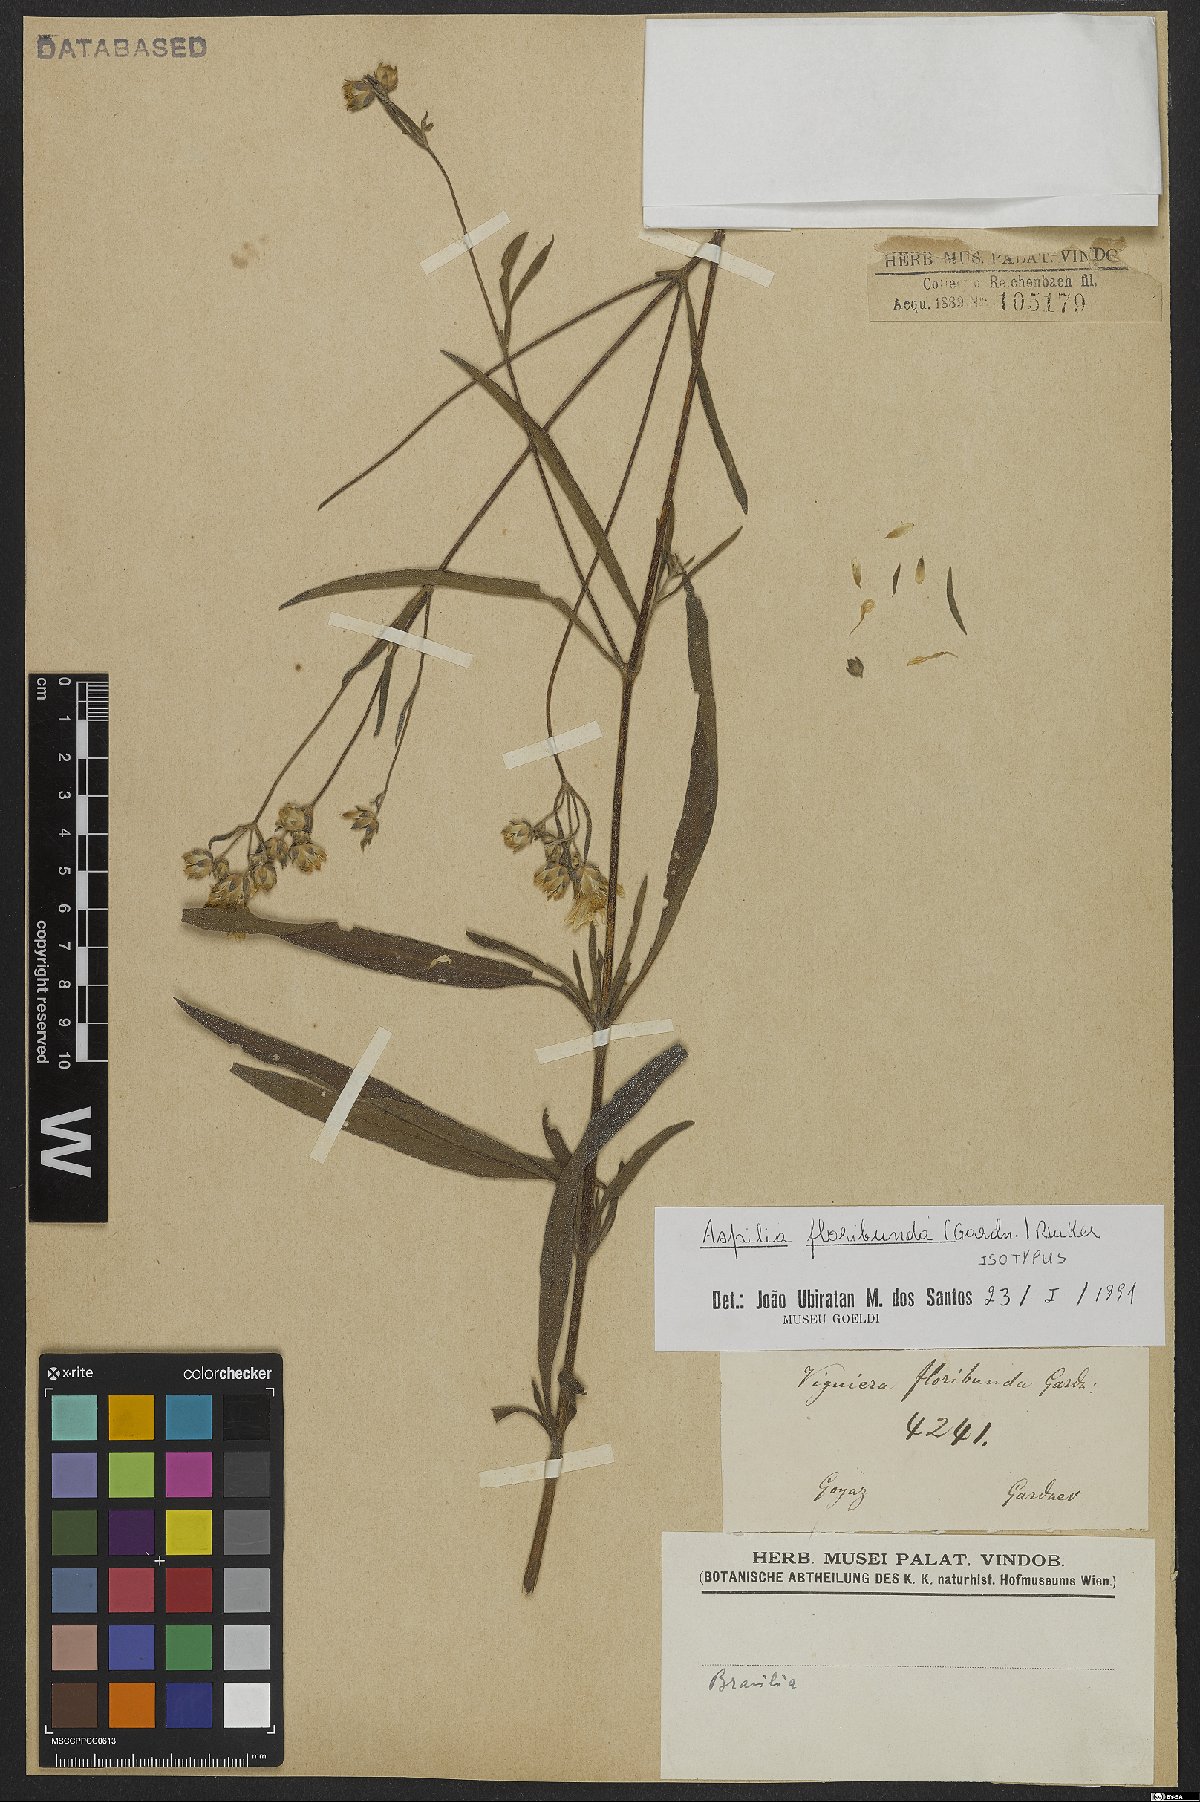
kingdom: Plantae
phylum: Tracheophyta
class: Magnoliopsida
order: Asterales
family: Asteraceae
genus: Wedelia
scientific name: Wedelia floribunda
